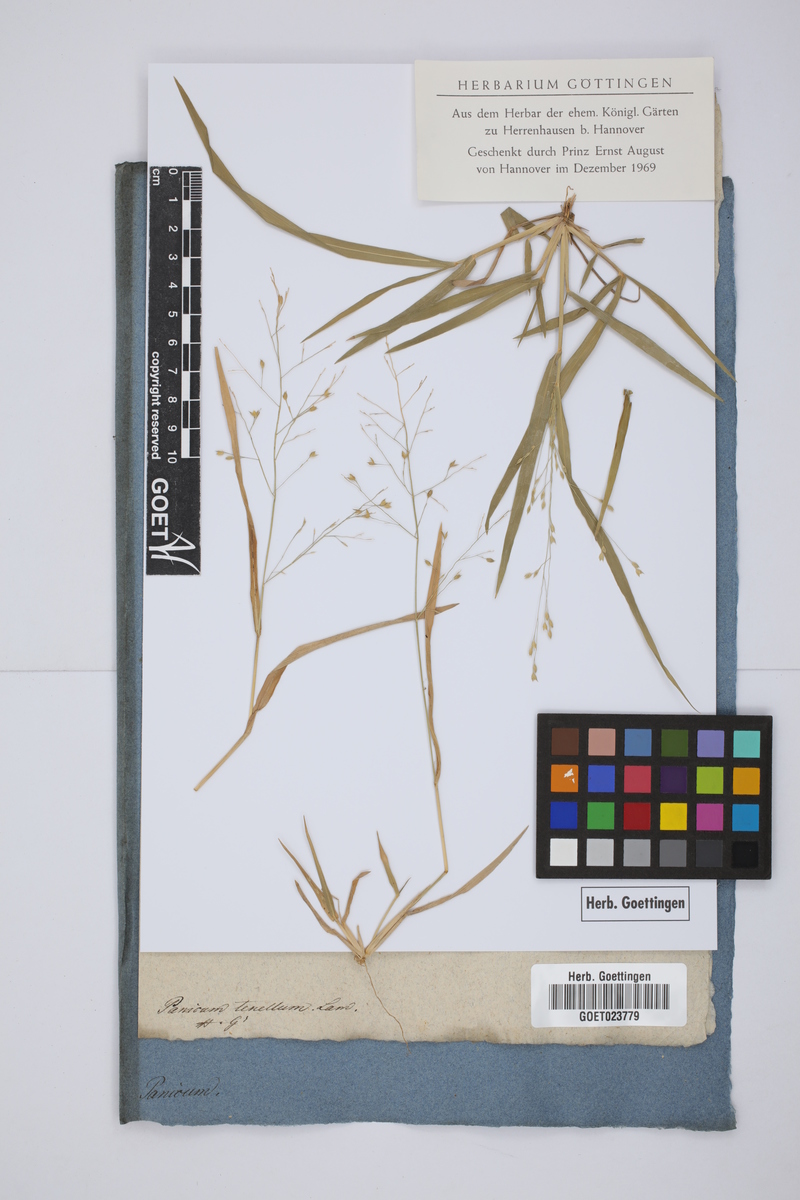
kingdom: Plantae
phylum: Tracheophyta
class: Liliopsida
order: Poales
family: Poaceae
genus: Trichanthecium
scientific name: Trichanthecium tenellum
